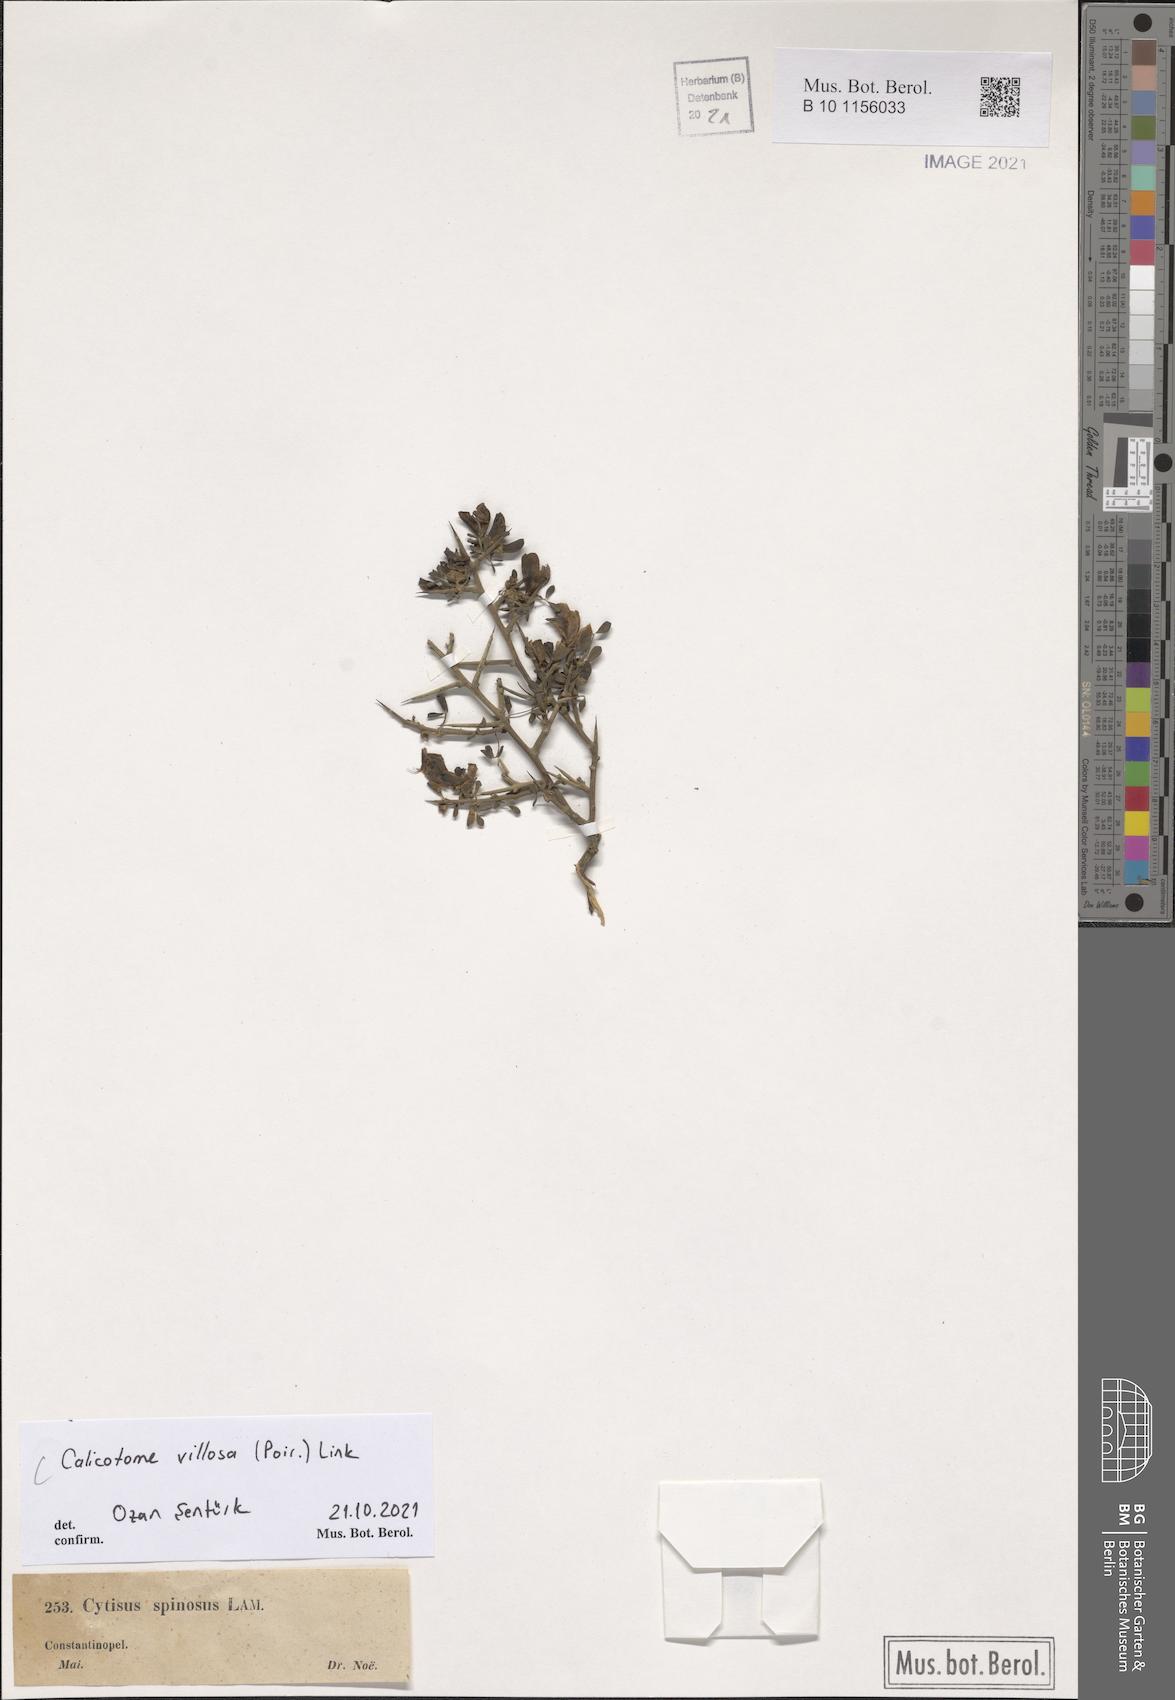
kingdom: Plantae
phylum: Tracheophyta
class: Magnoliopsida
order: Fabales
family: Fabaceae
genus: Calicotome
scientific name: Calicotome villosa
